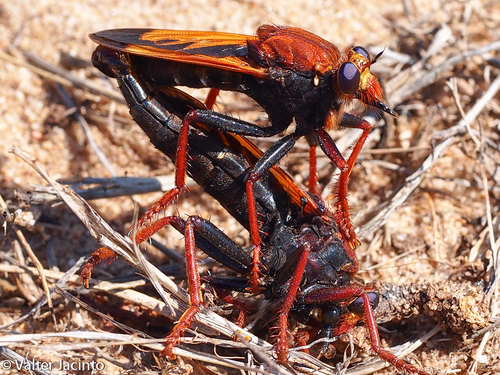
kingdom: Animalia
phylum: Arthropoda
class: Insecta
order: Diptera
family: Asilidae
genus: Asilus
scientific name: Asilus barbarus
